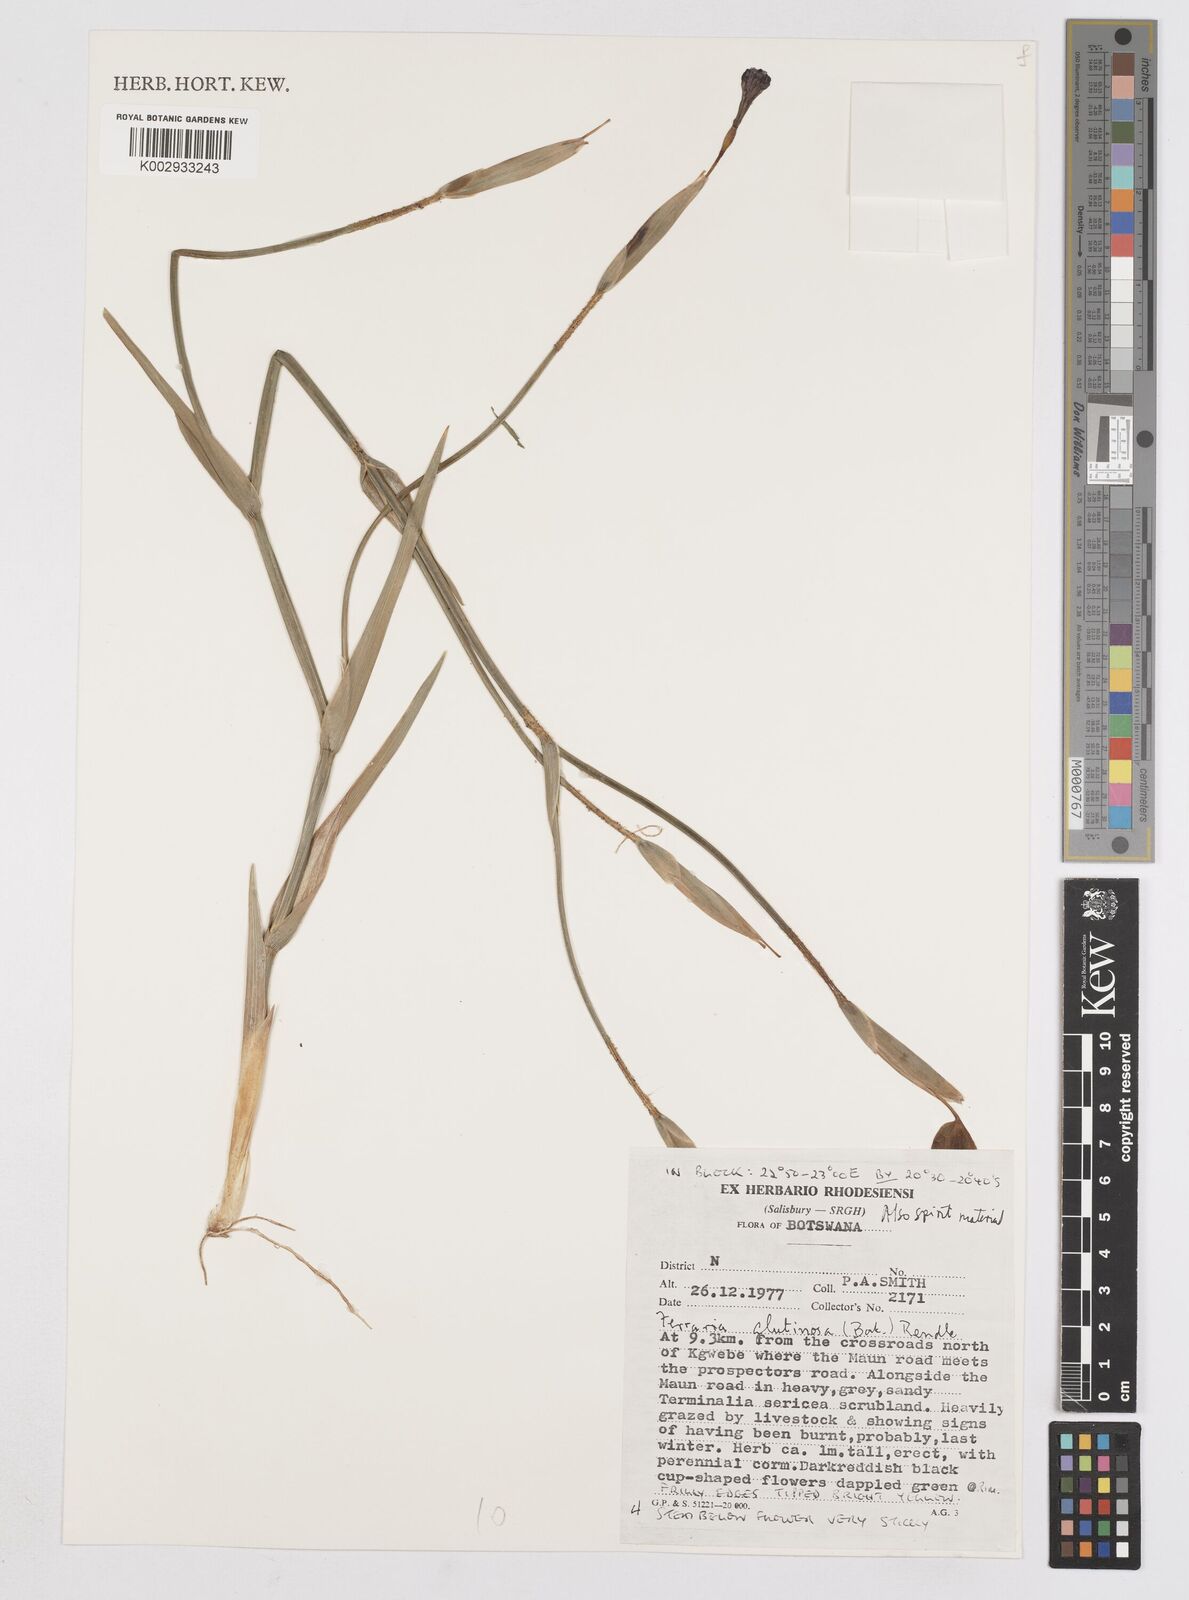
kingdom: Plantae
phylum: Tracheophyta
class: Liliopsida
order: Asparagales
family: Iridaceae
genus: Ferraria
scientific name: Ferraria glutinosa
